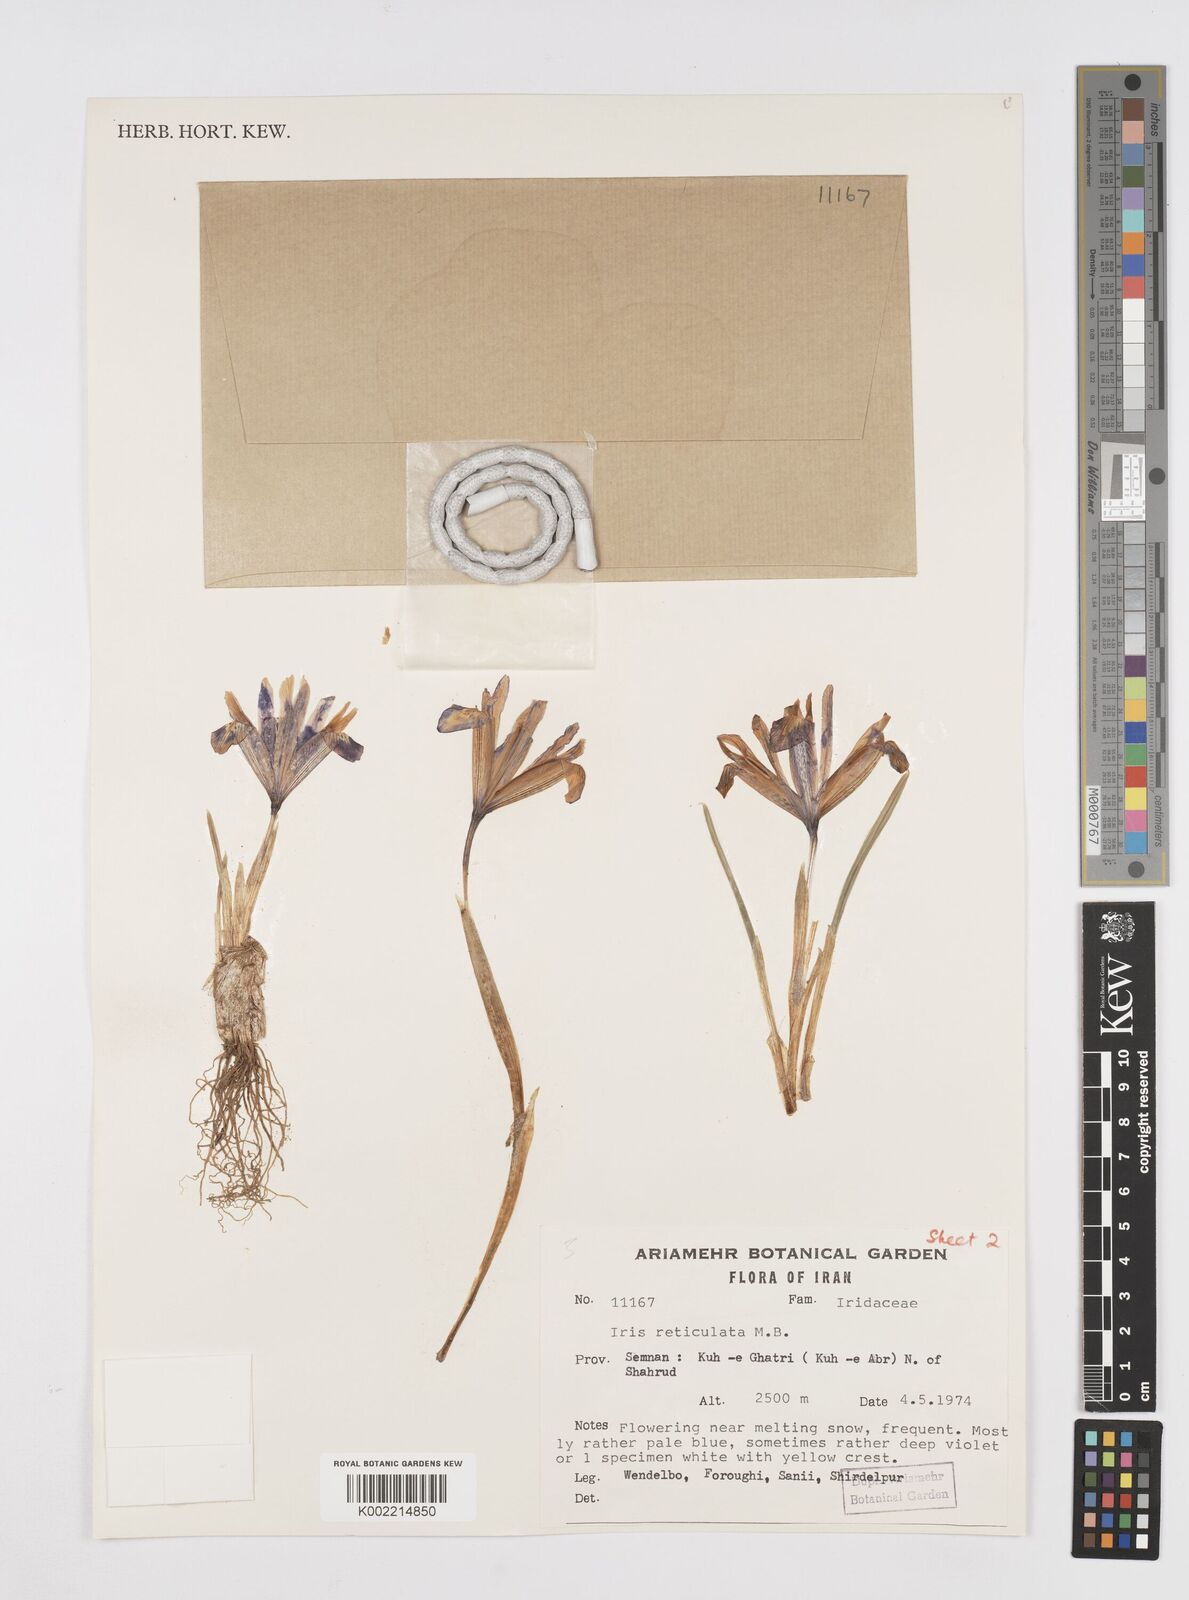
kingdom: Plantae
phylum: Tracheophyta
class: Liliopsida
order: Asparagales
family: Iridaceae
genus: Iris
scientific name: Iris reticulata
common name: Netted iris
